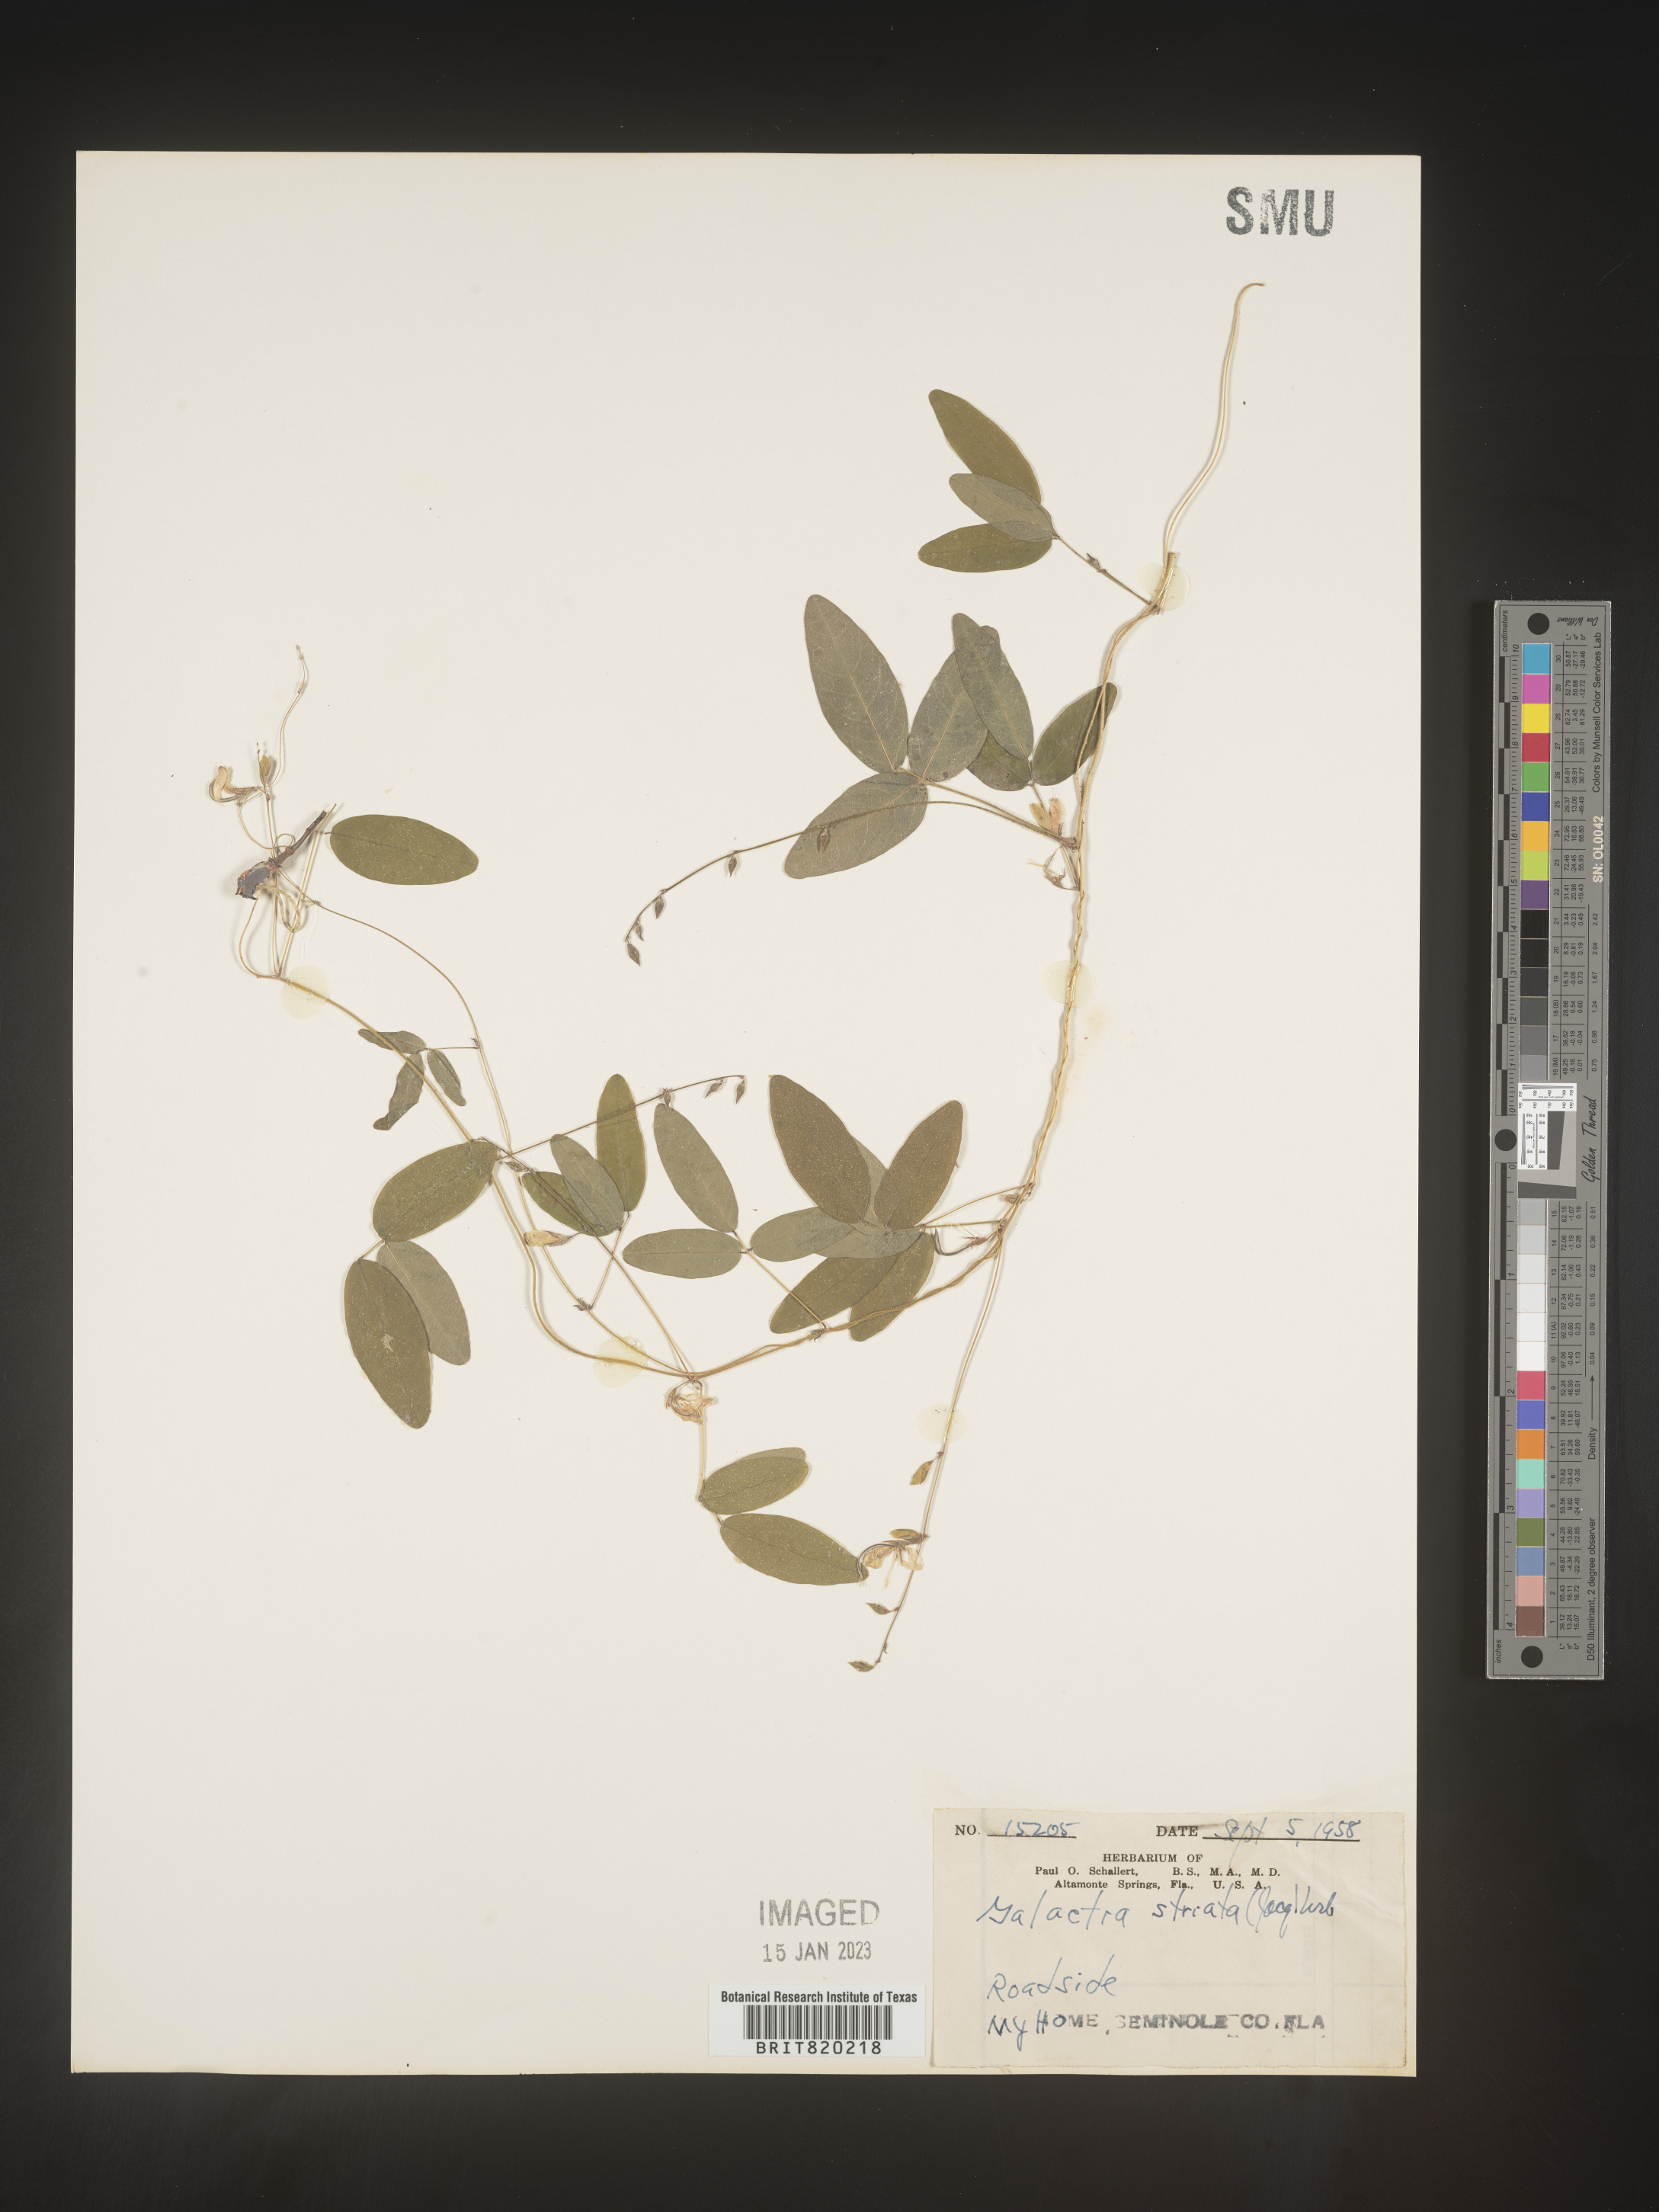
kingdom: Plantae
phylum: Tracheophyta
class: Magnoliopsida
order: Fabales
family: Fabaceae
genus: Galactia
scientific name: Galactia volubilis
